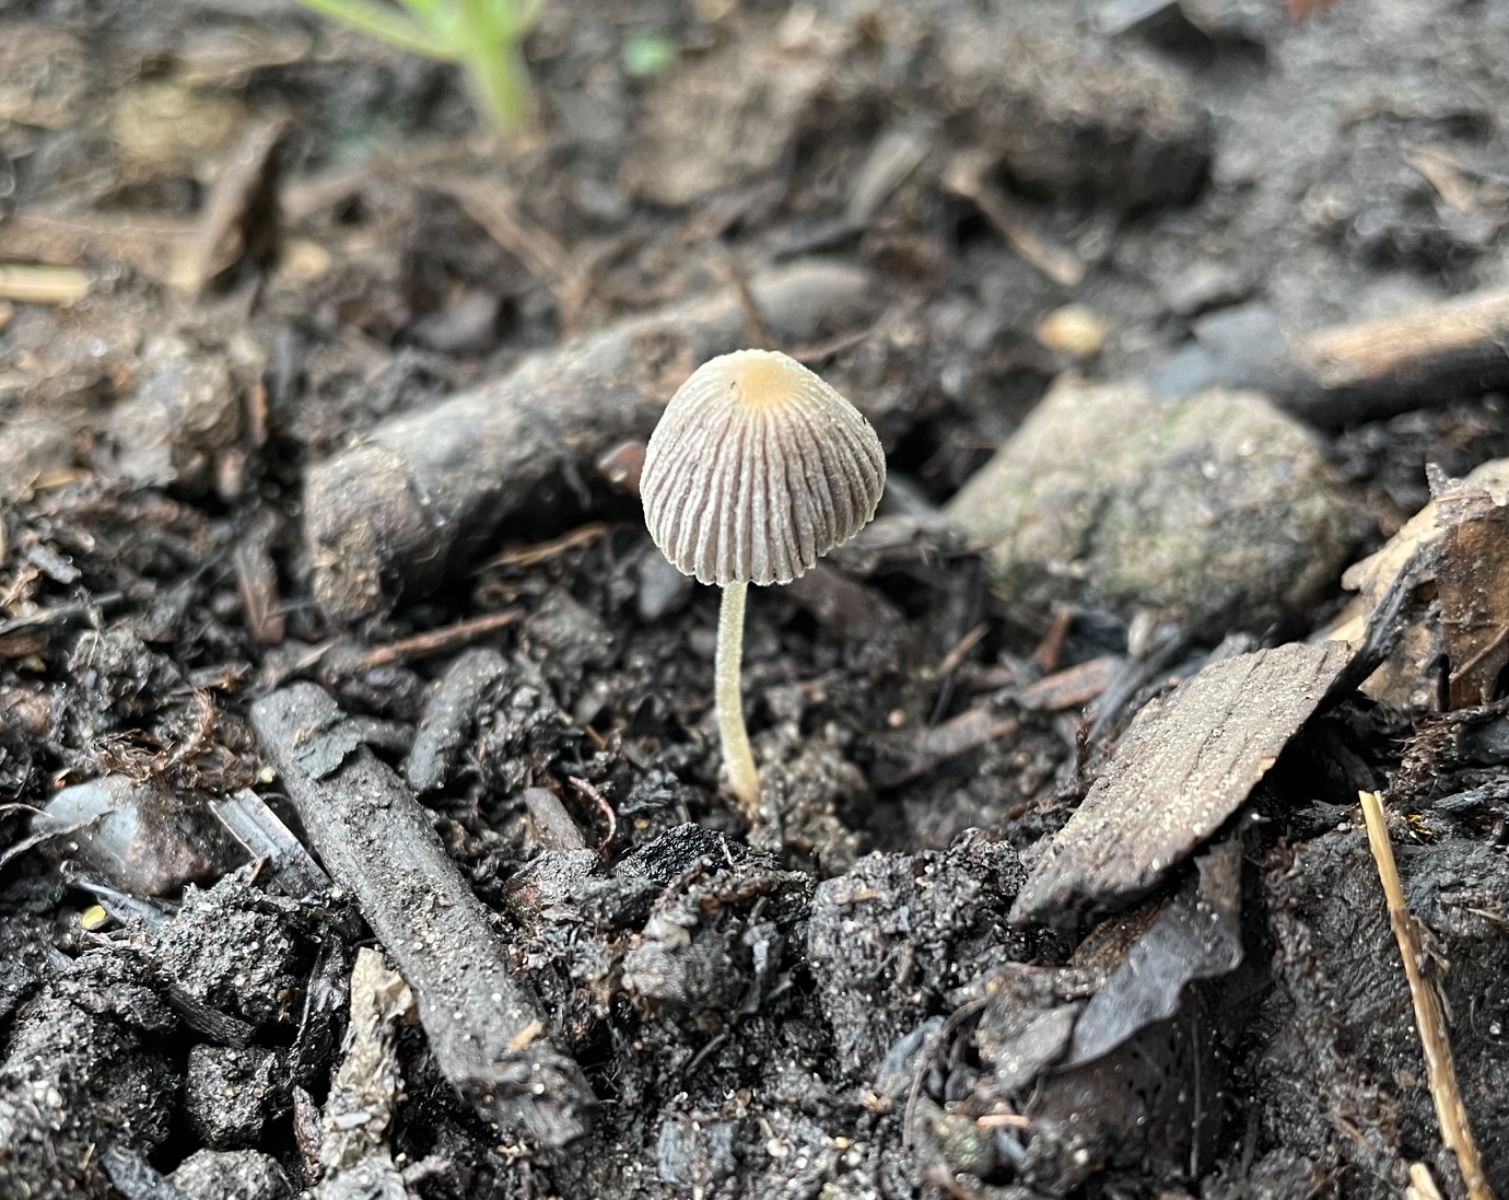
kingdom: Fungi
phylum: Basidiomycota
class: Agaricomycetes
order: Agaricales
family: Psathyrellaceae
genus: Coprinellus
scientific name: Coprinellus
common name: blækhat
